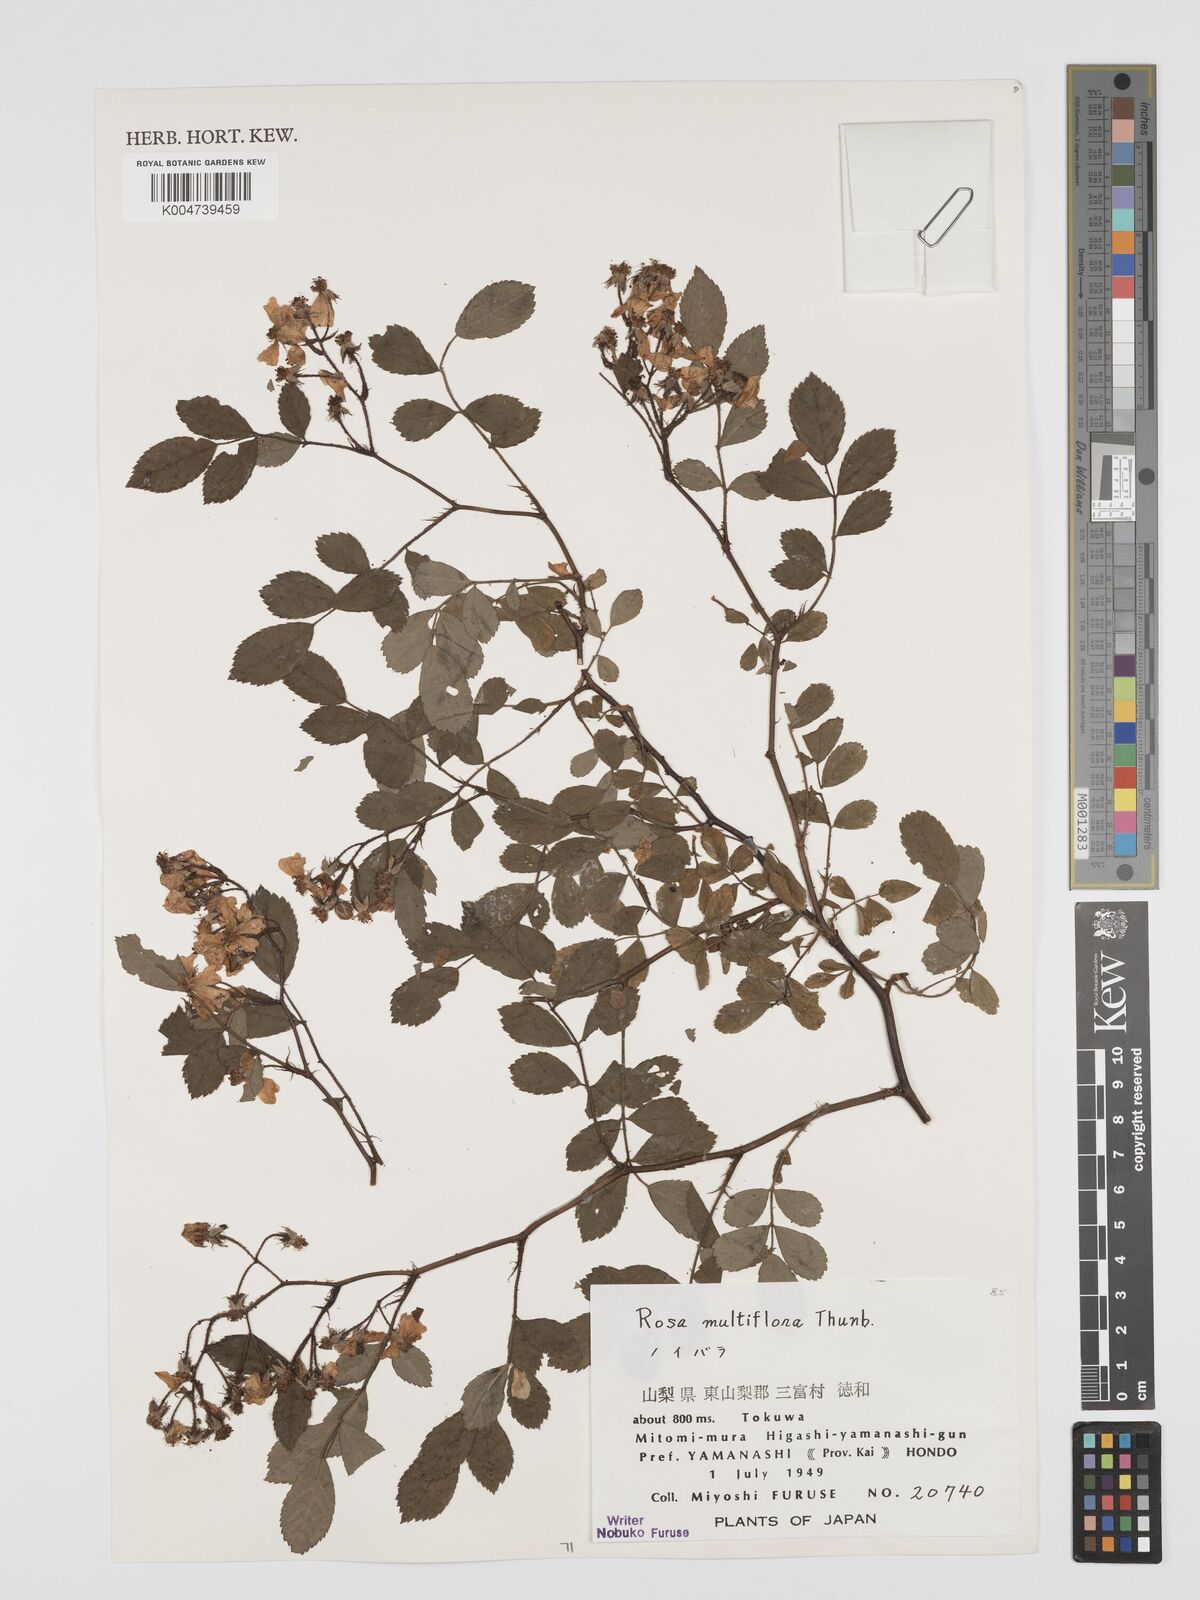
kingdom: Plantae
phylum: Tracheophyta
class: Magnoliopsida
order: Rosales
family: Rosaceae
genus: Rosa
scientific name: Rosa
